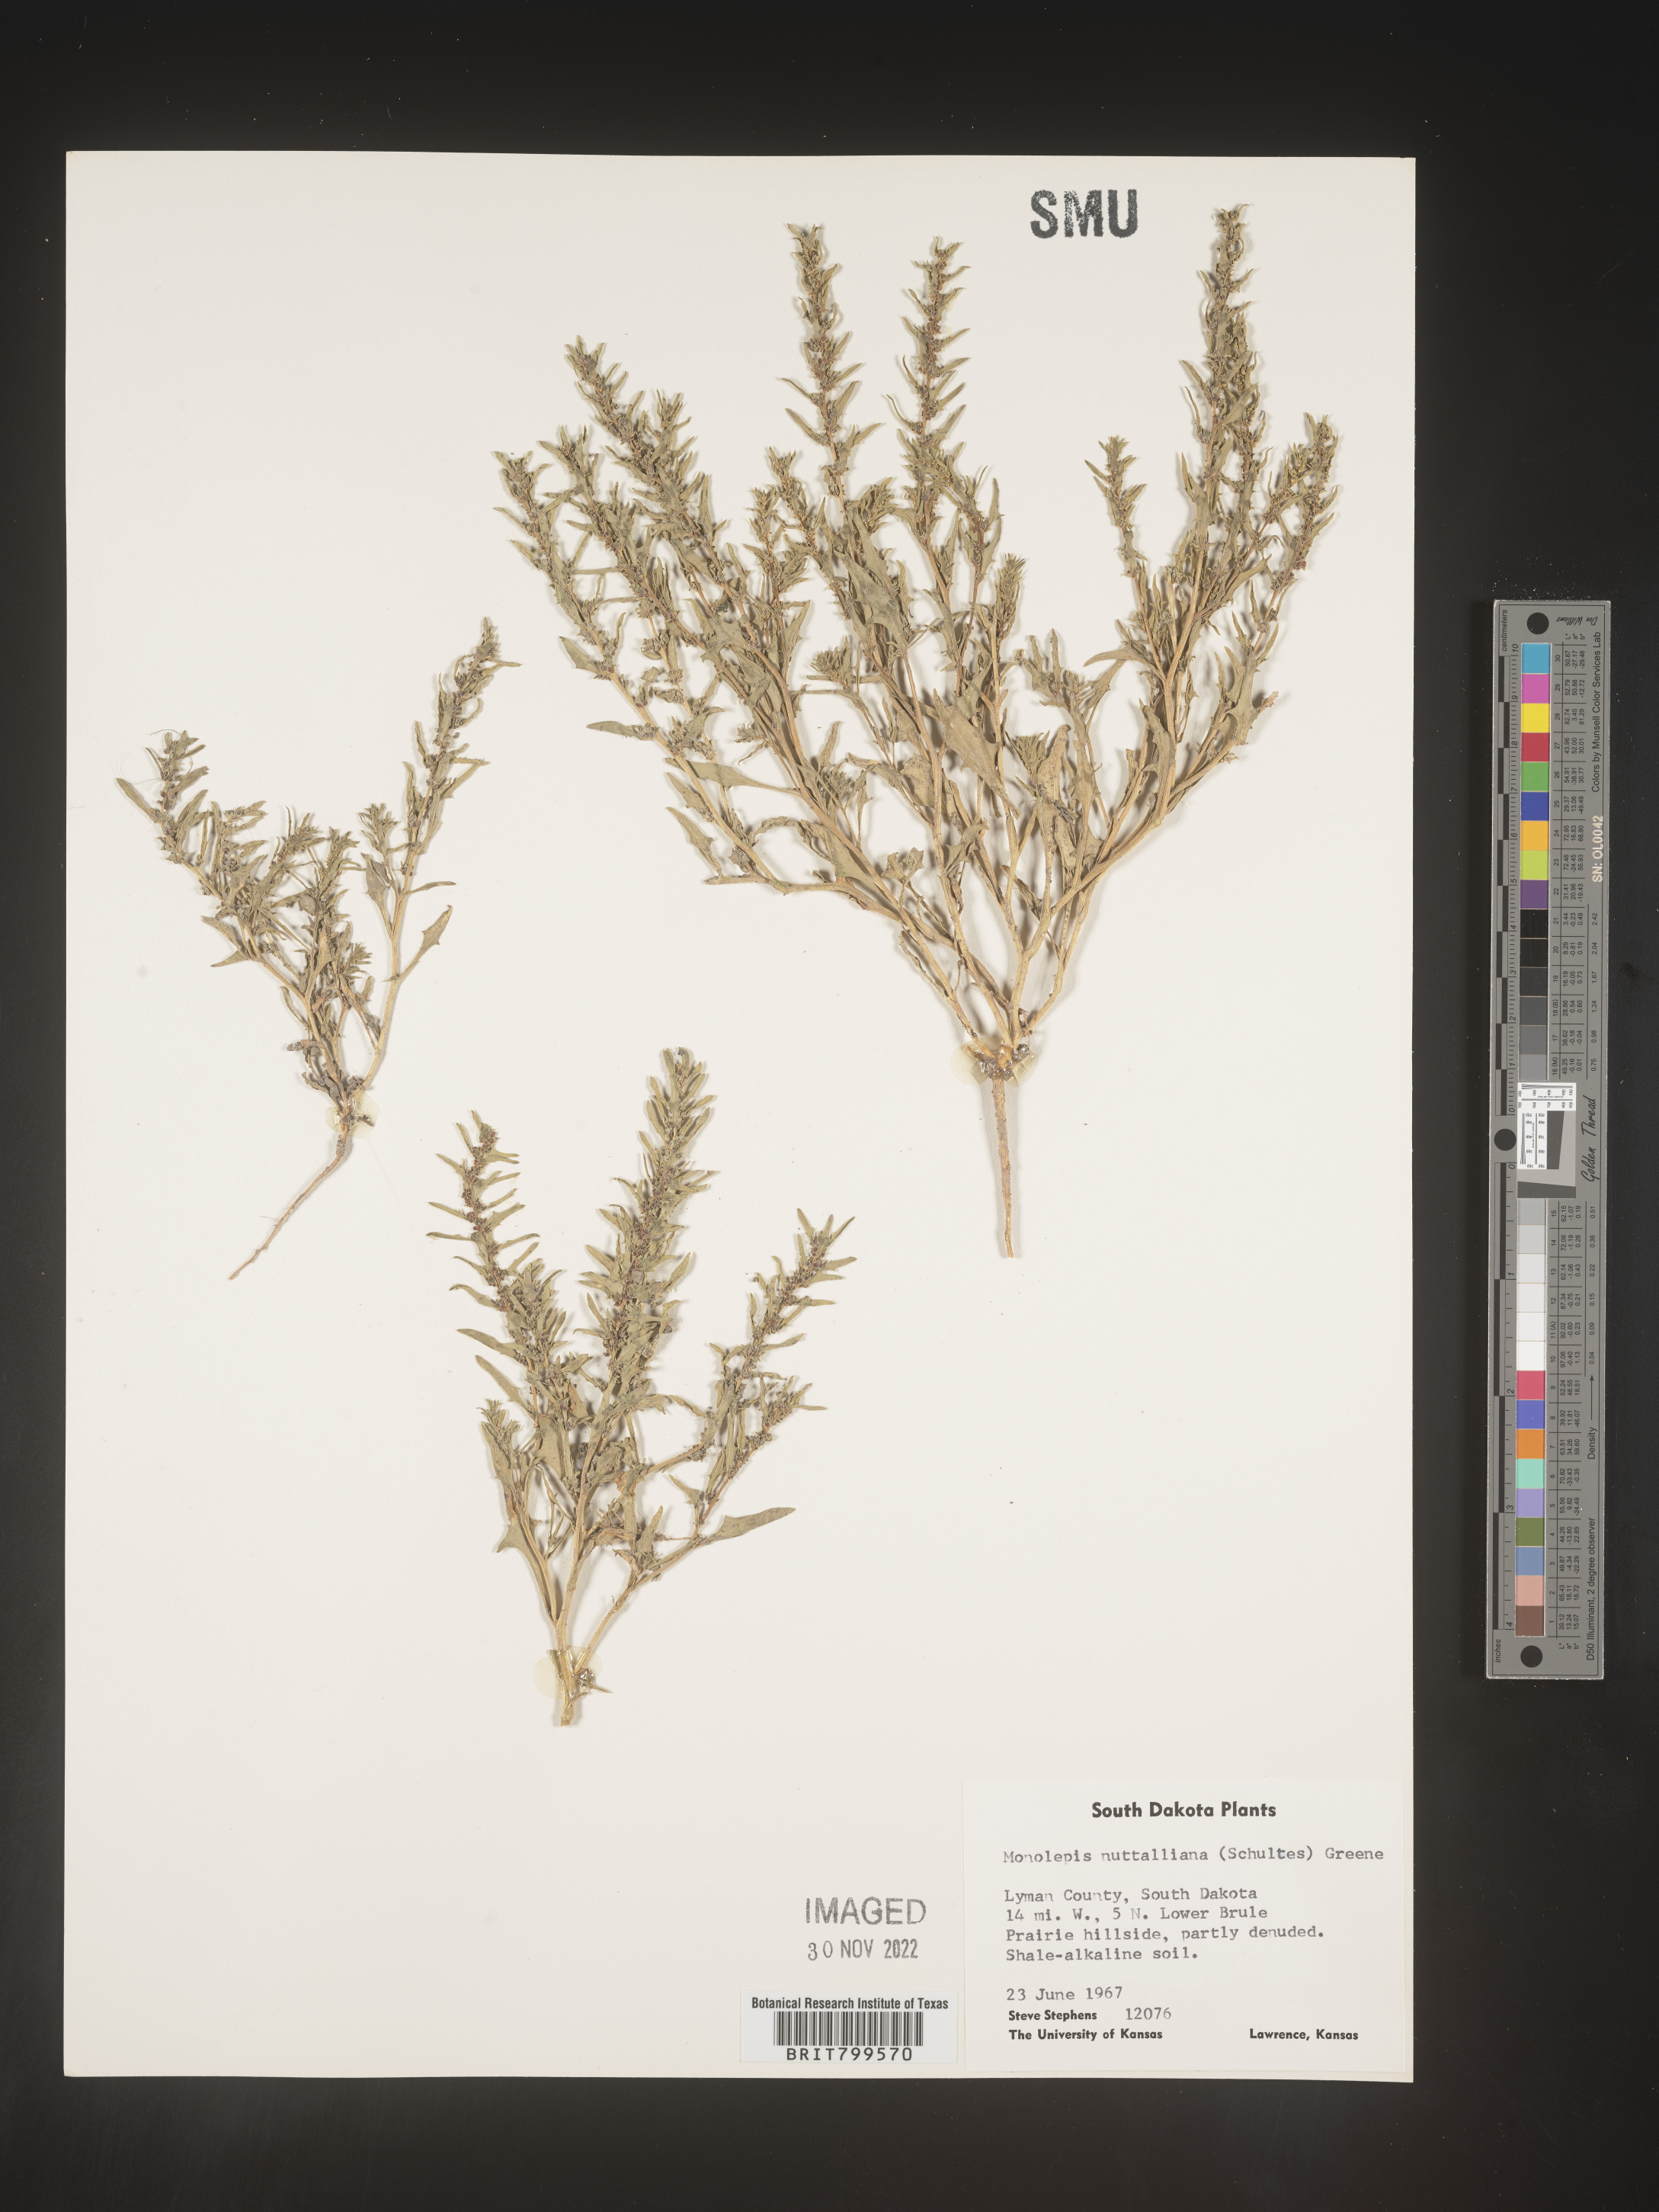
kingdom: Plantae
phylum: Tracheophyta
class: Magnoliopsida
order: Caryophyllales
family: Amaranthaceae
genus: Blitum
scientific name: Blitum
